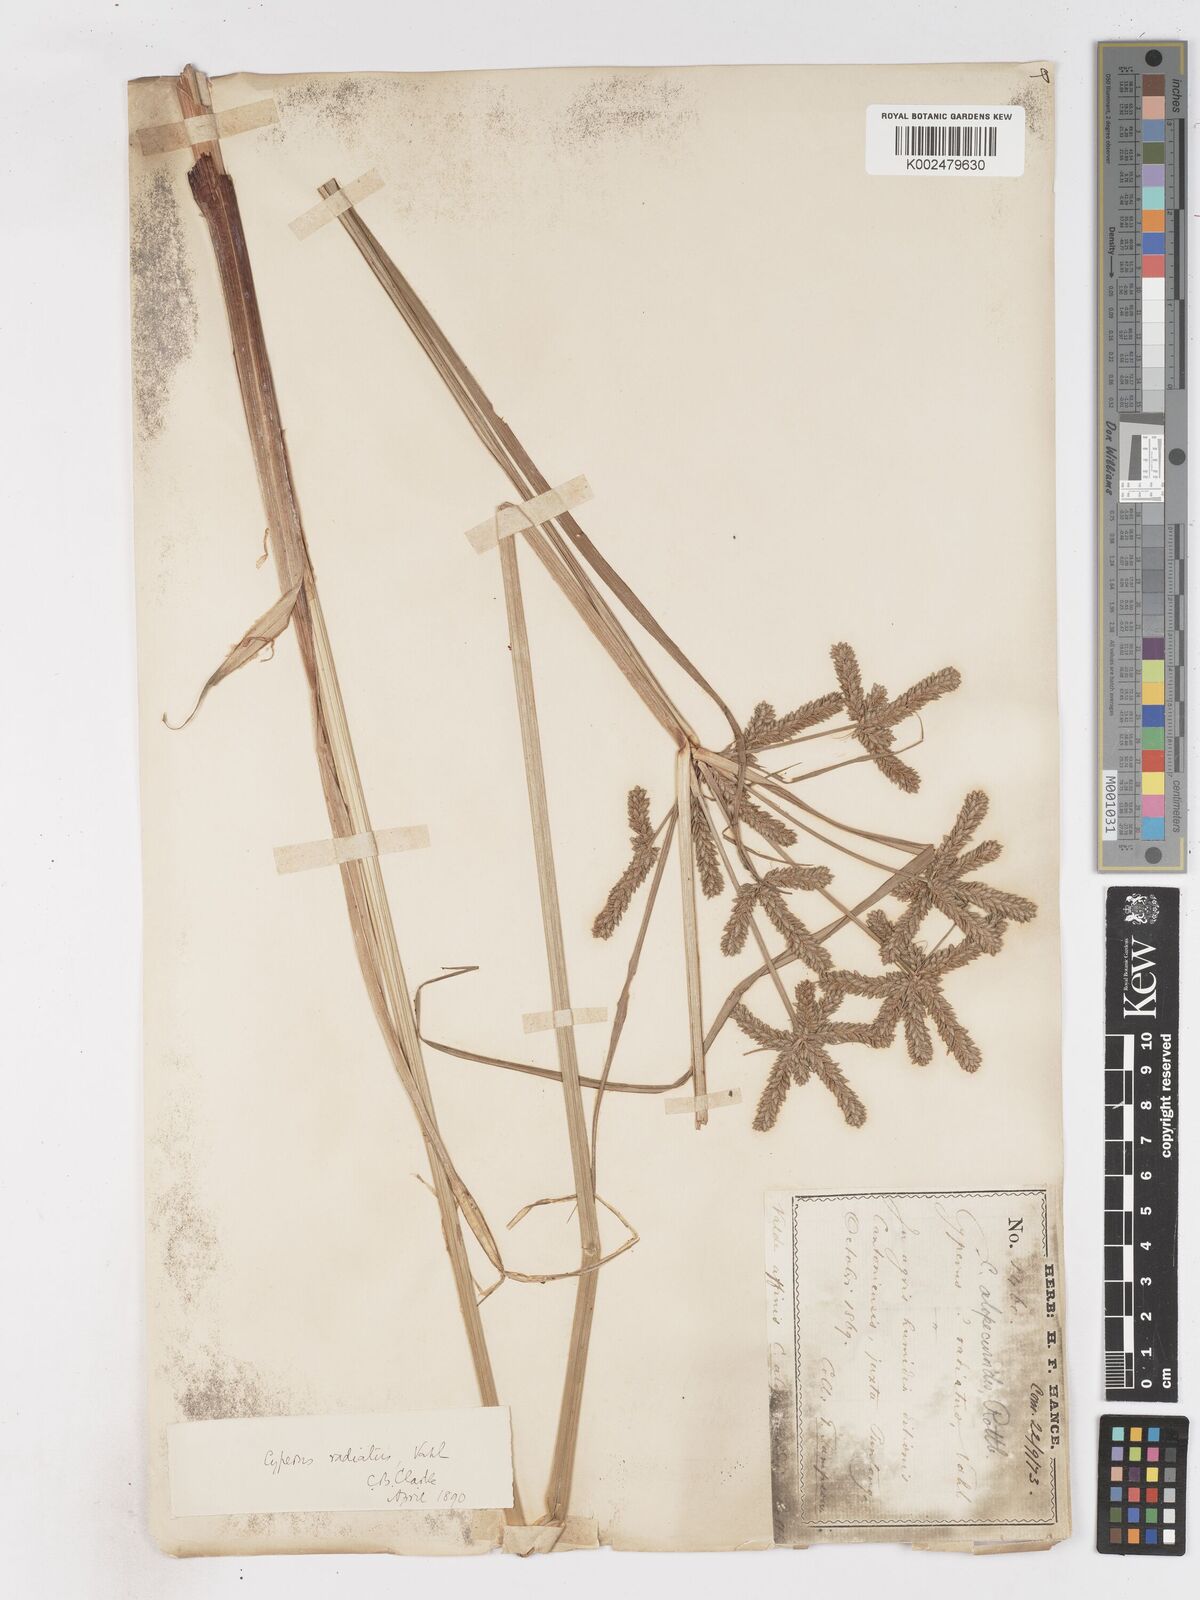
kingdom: Plantae
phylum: Tracheophyta
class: Liliopsida
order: Poales
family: Cyperaceae
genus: Cyperus
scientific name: Cyperus imbricatus
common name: Shingle flatsedge
